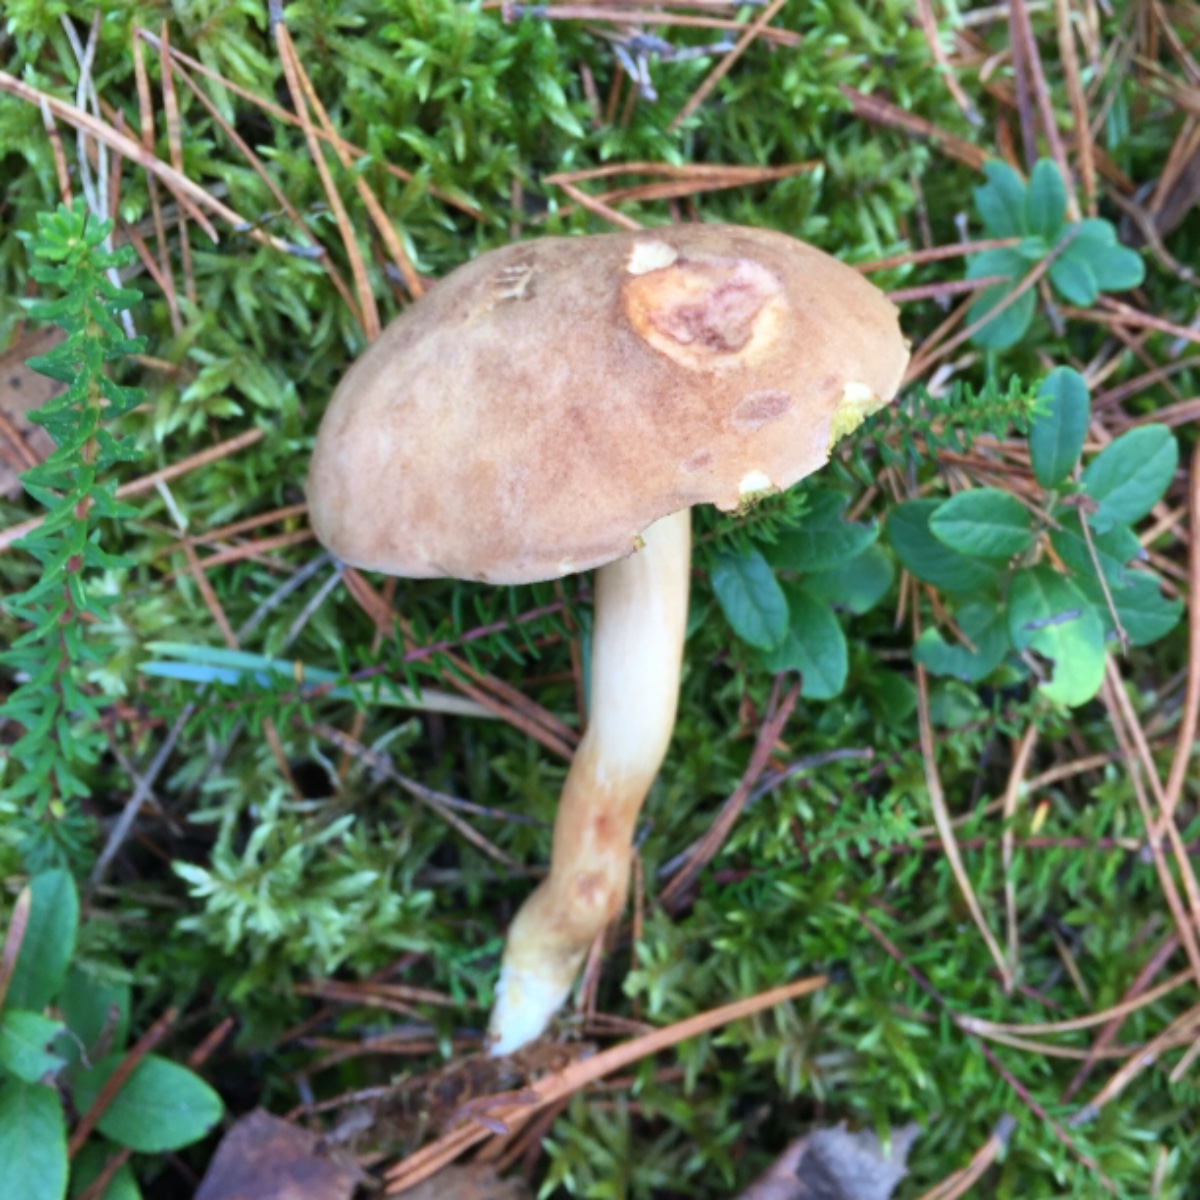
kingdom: Fungi
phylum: Basidiomycota
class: Agaricomycetes
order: Boletales
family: Boletaceae
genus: Xerocomus
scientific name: Xerocomus ferrugineus
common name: vaskeskinds-rørhat
